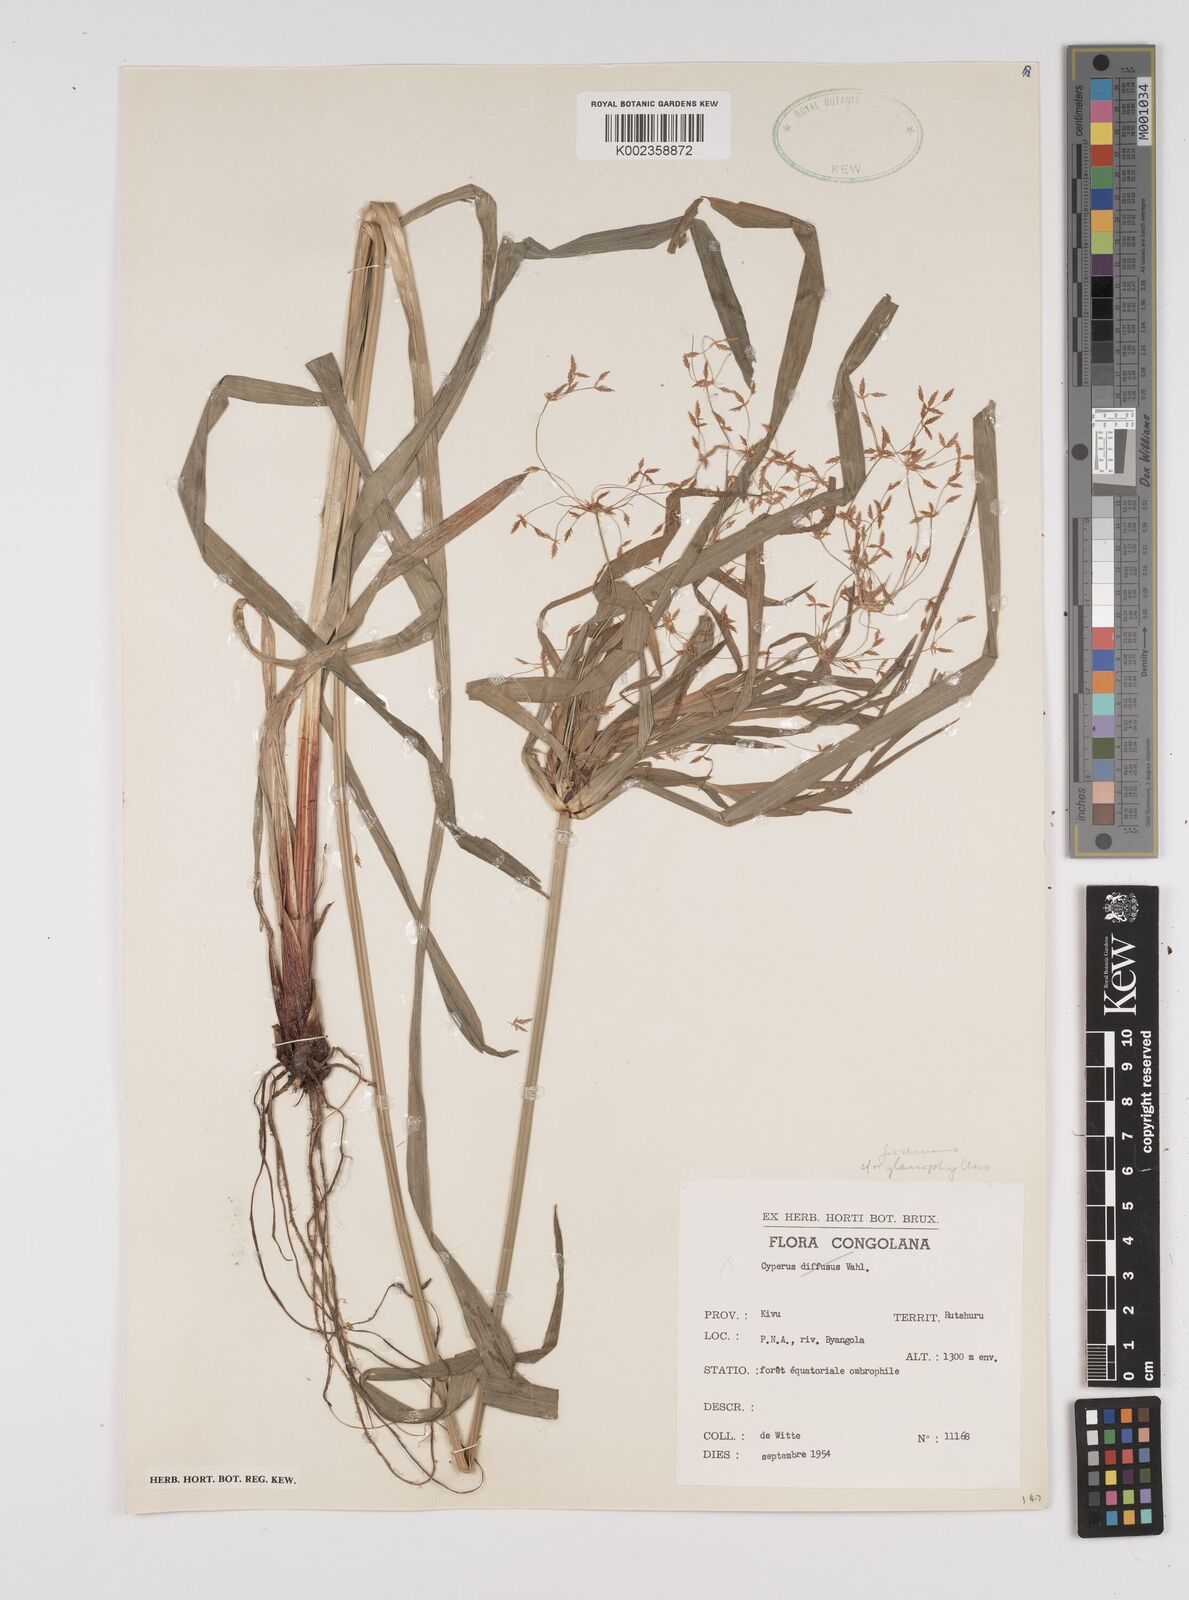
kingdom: Plantae
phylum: Tracheophyta
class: Liliopsida
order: Poales
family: Cyperaceae
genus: Cyperus
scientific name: Cyperus fischerianus
